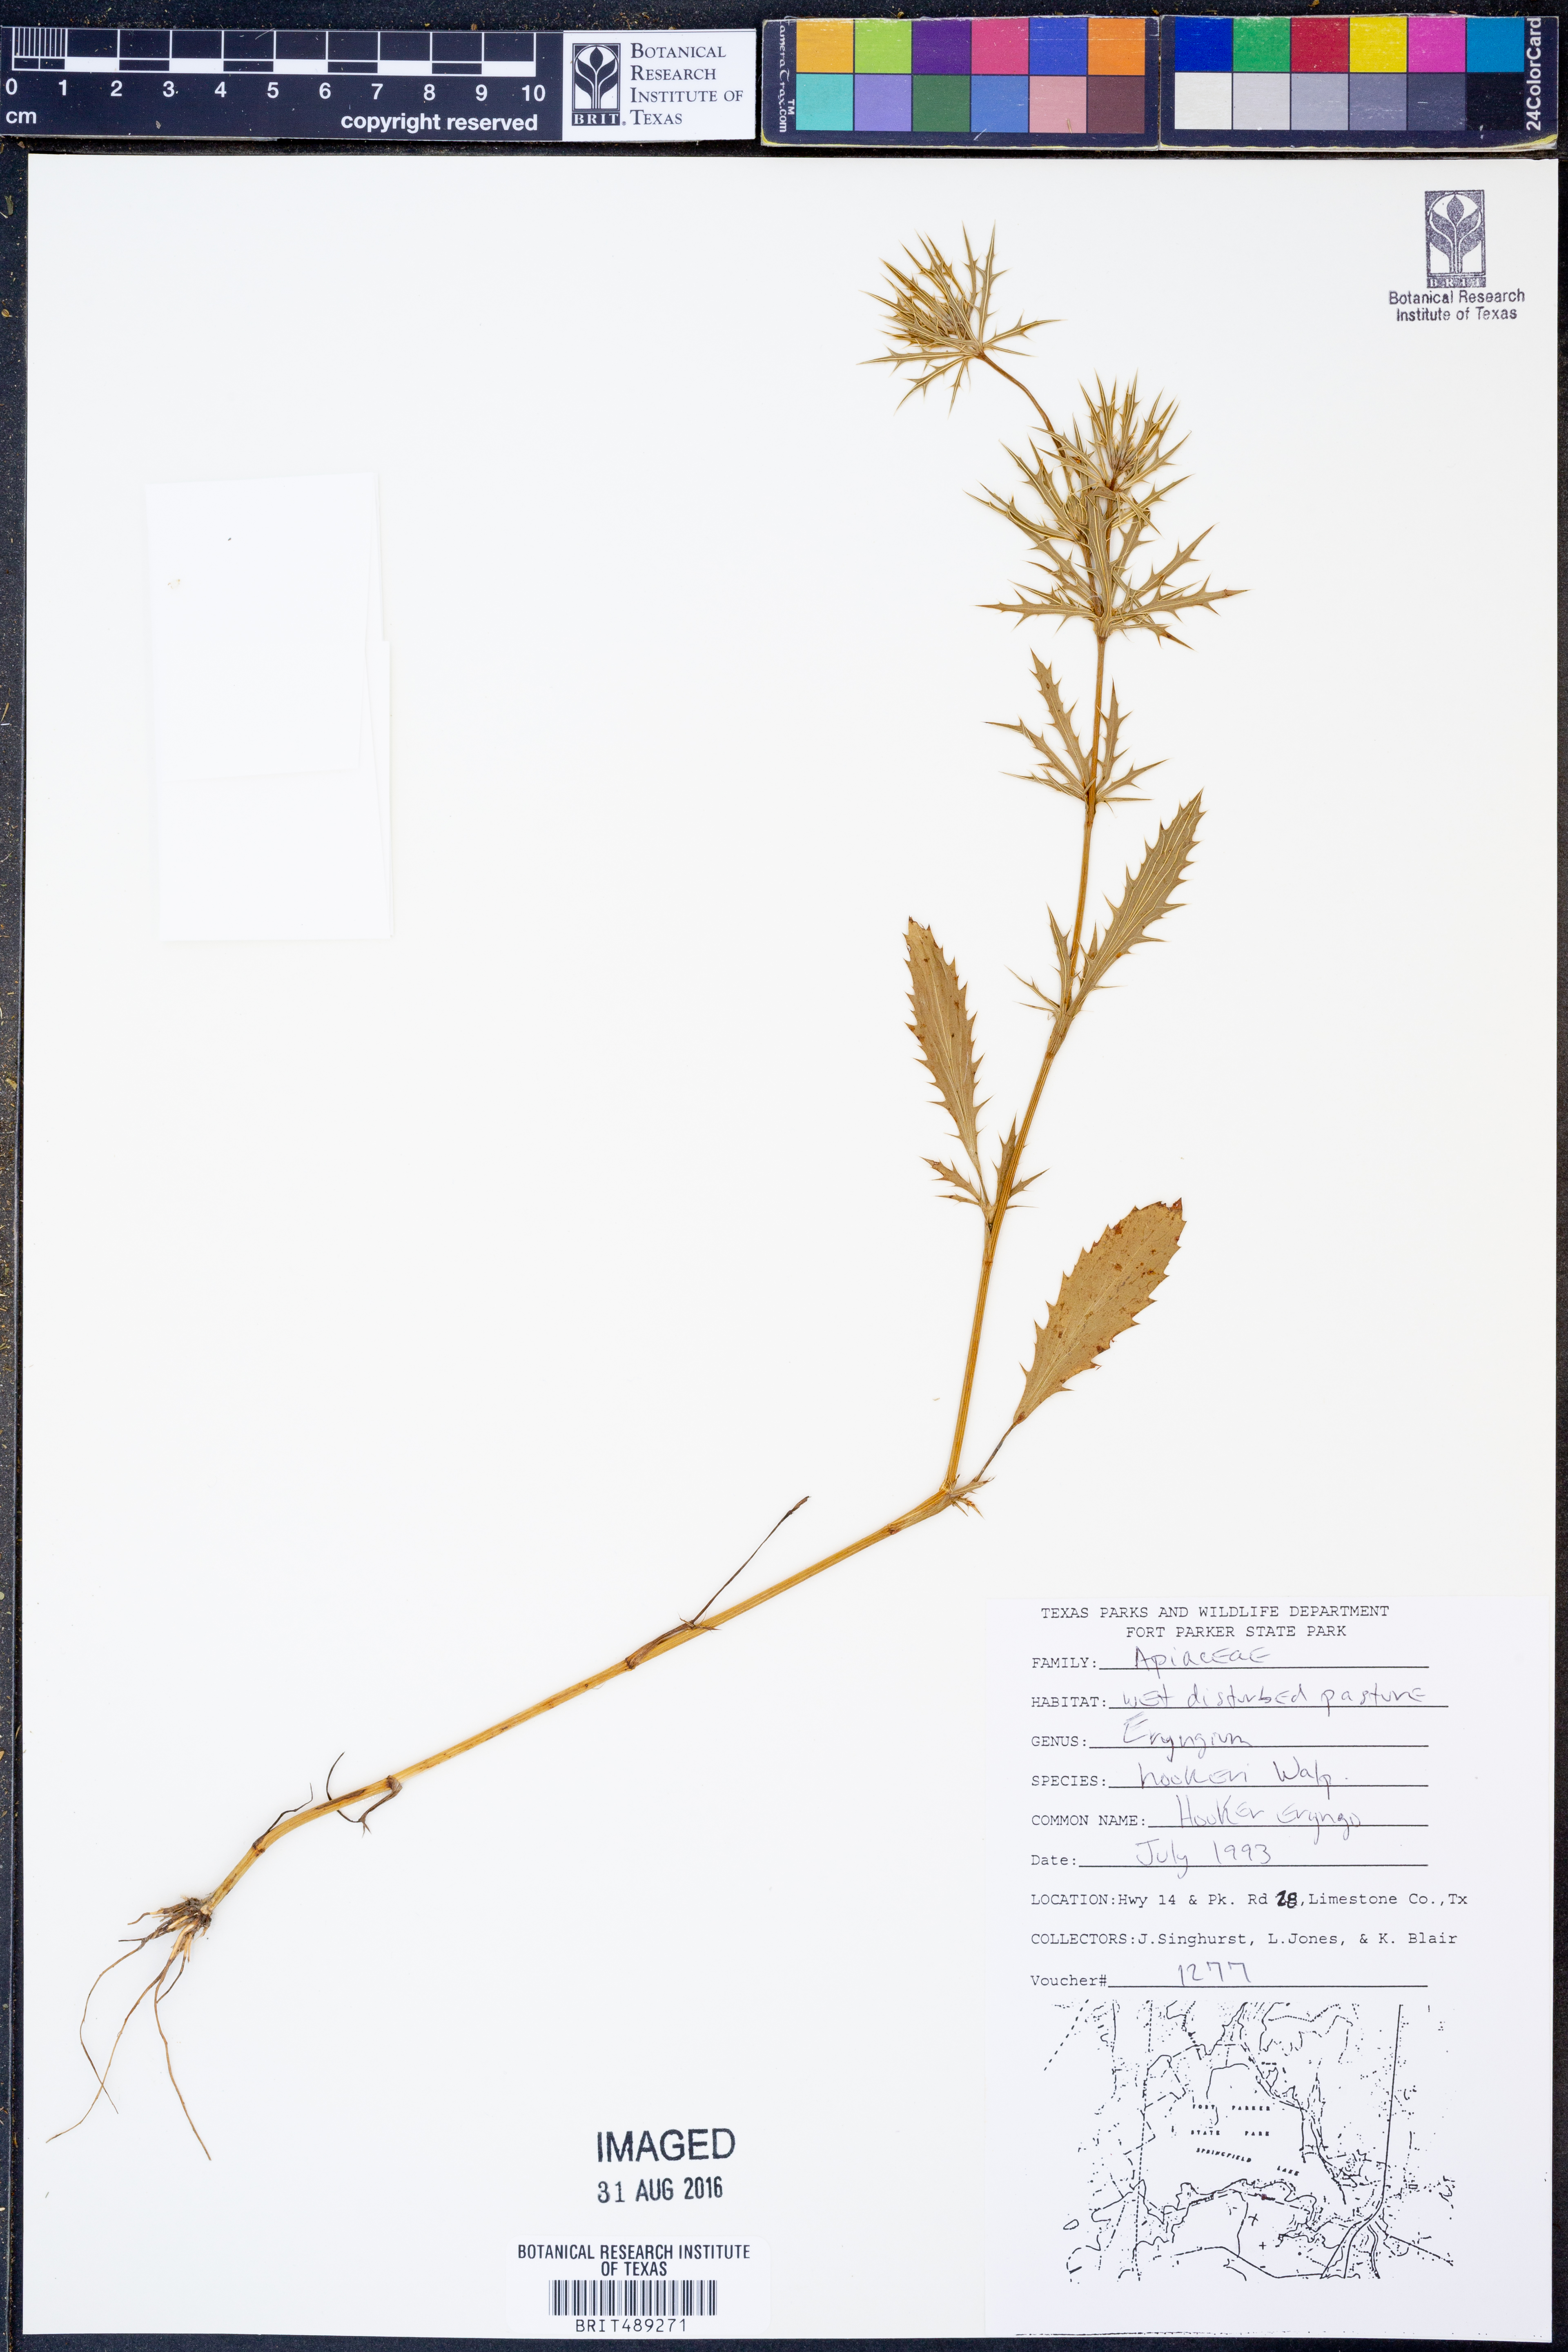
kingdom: Plantae
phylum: Tracheophyta
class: Magnoliopsida
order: Apiales
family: Apiaceae
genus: Eryngium
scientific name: Eryngium hookeri
